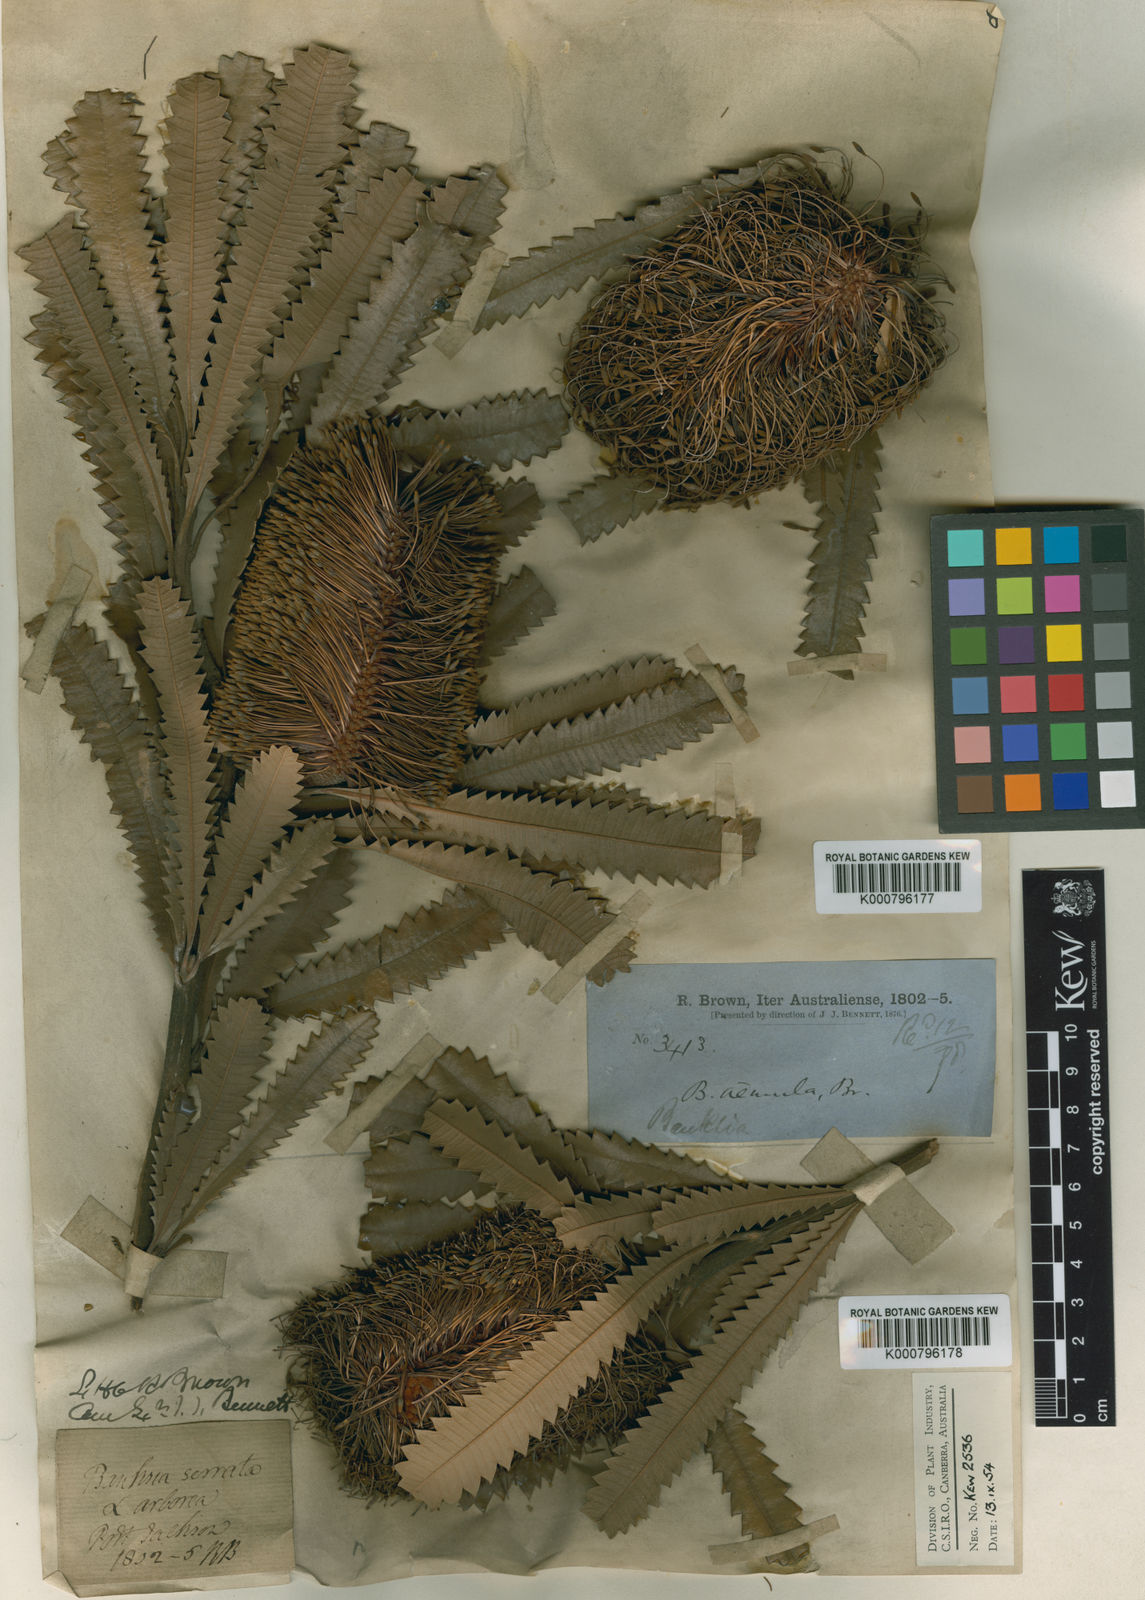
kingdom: Plantae
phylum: Tracheophyta
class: Magnoliopsida
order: Proteales
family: Proteaceae
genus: Banksia
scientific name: Banksia aemula
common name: Wallum banksia
